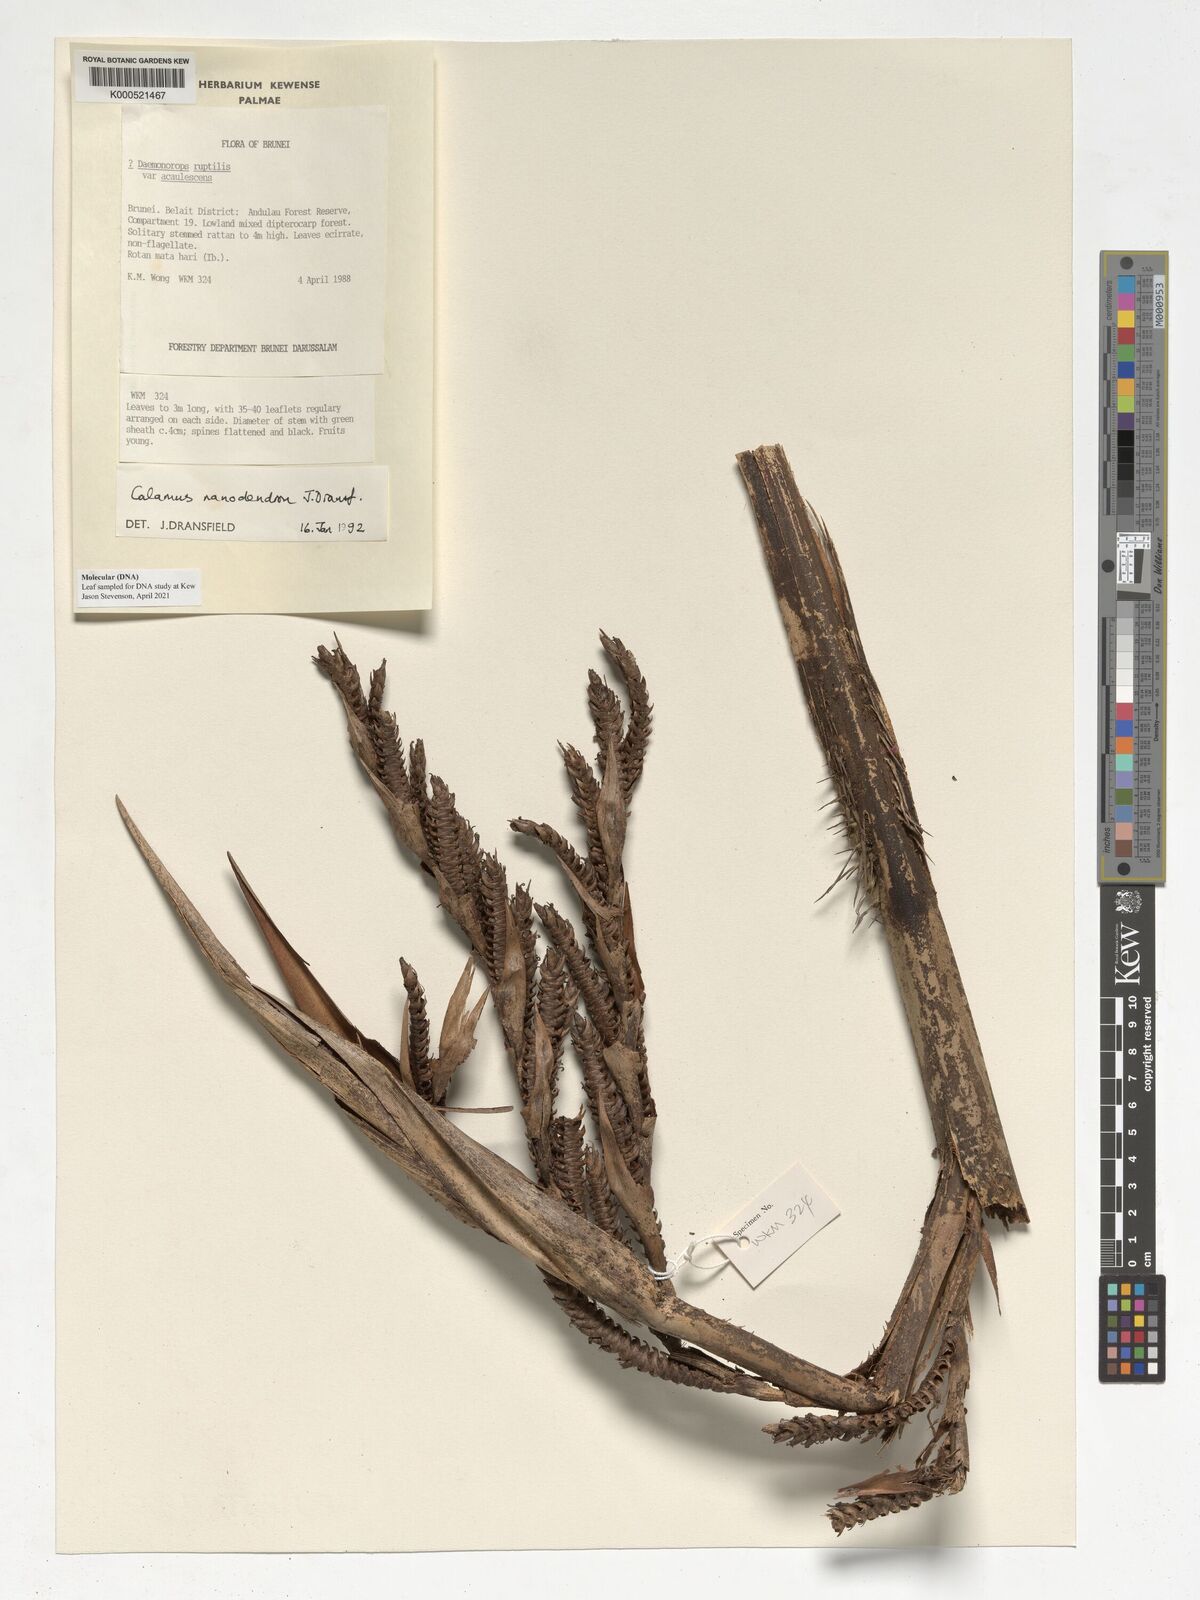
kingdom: Plantae
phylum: Tracheophyta
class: Liliopsida
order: Arecales
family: Arecaceae
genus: Calamus
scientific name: Calamus nanodendron
